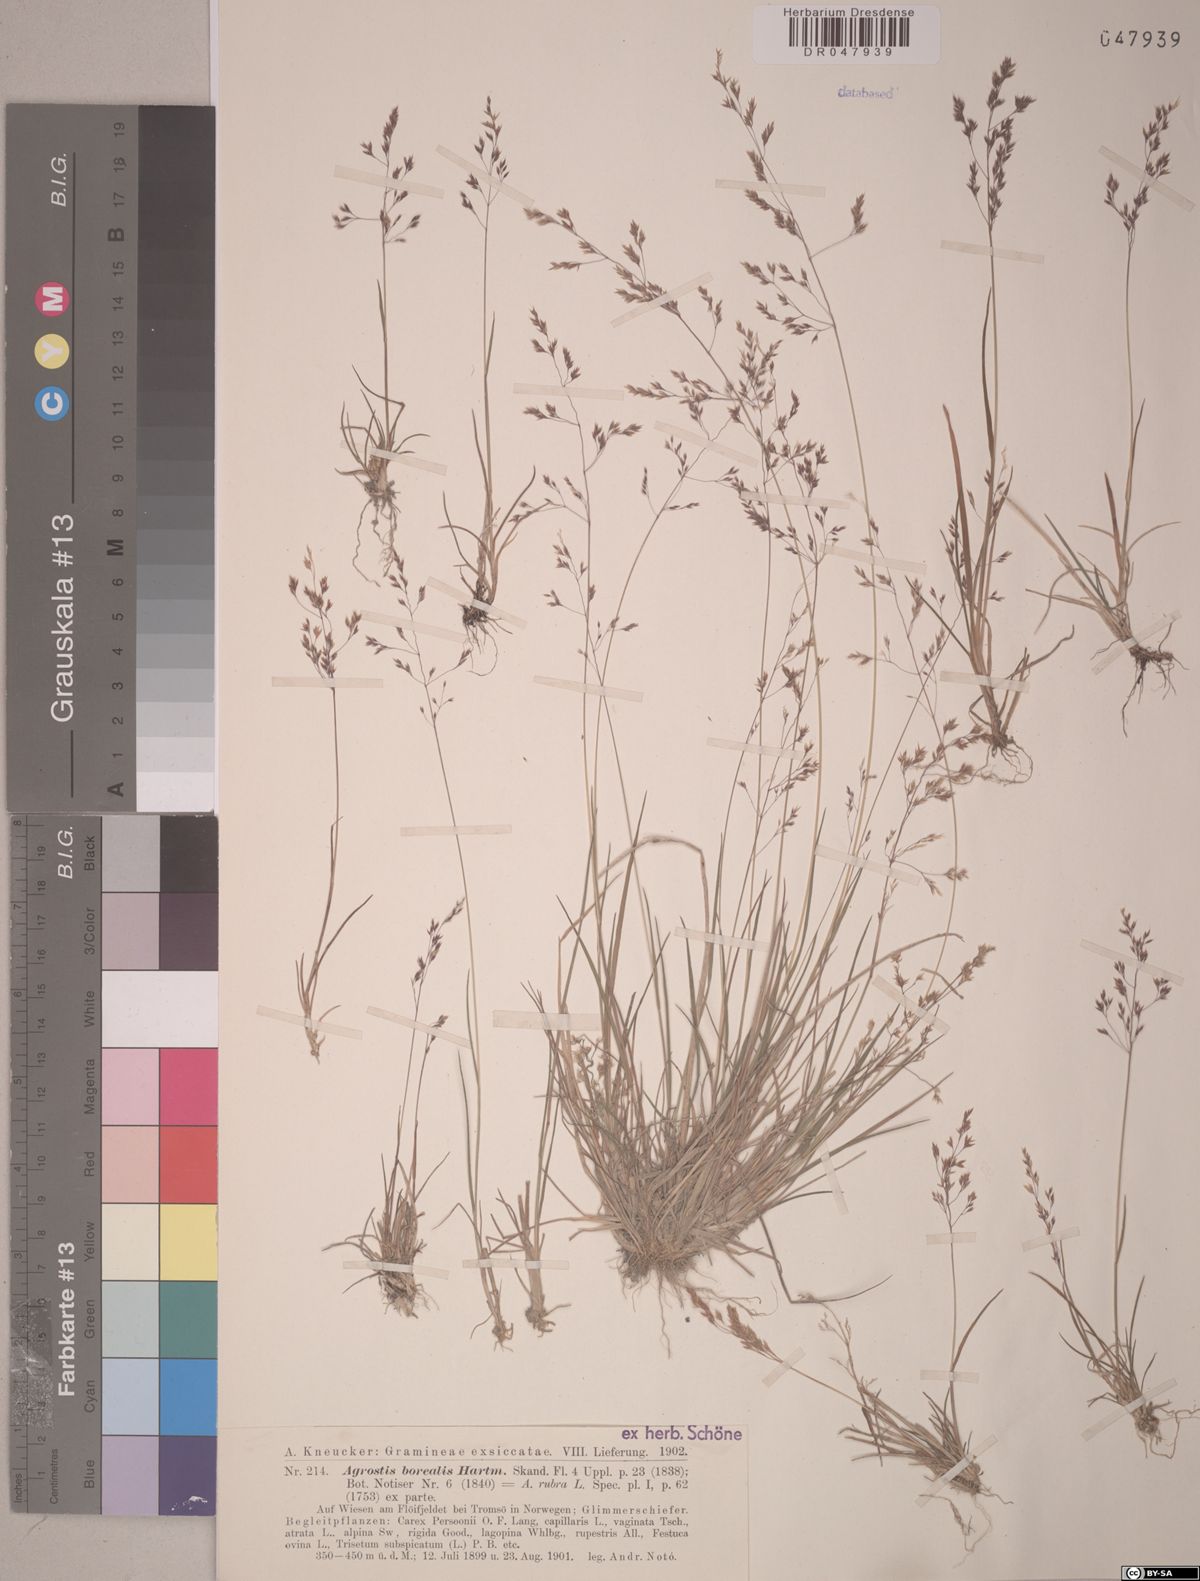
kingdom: Plantae
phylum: Tracheophyta
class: Liliopsida
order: Poales
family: Poaceae
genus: Agrostis
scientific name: Agrostis mertensii
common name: Northern bent
